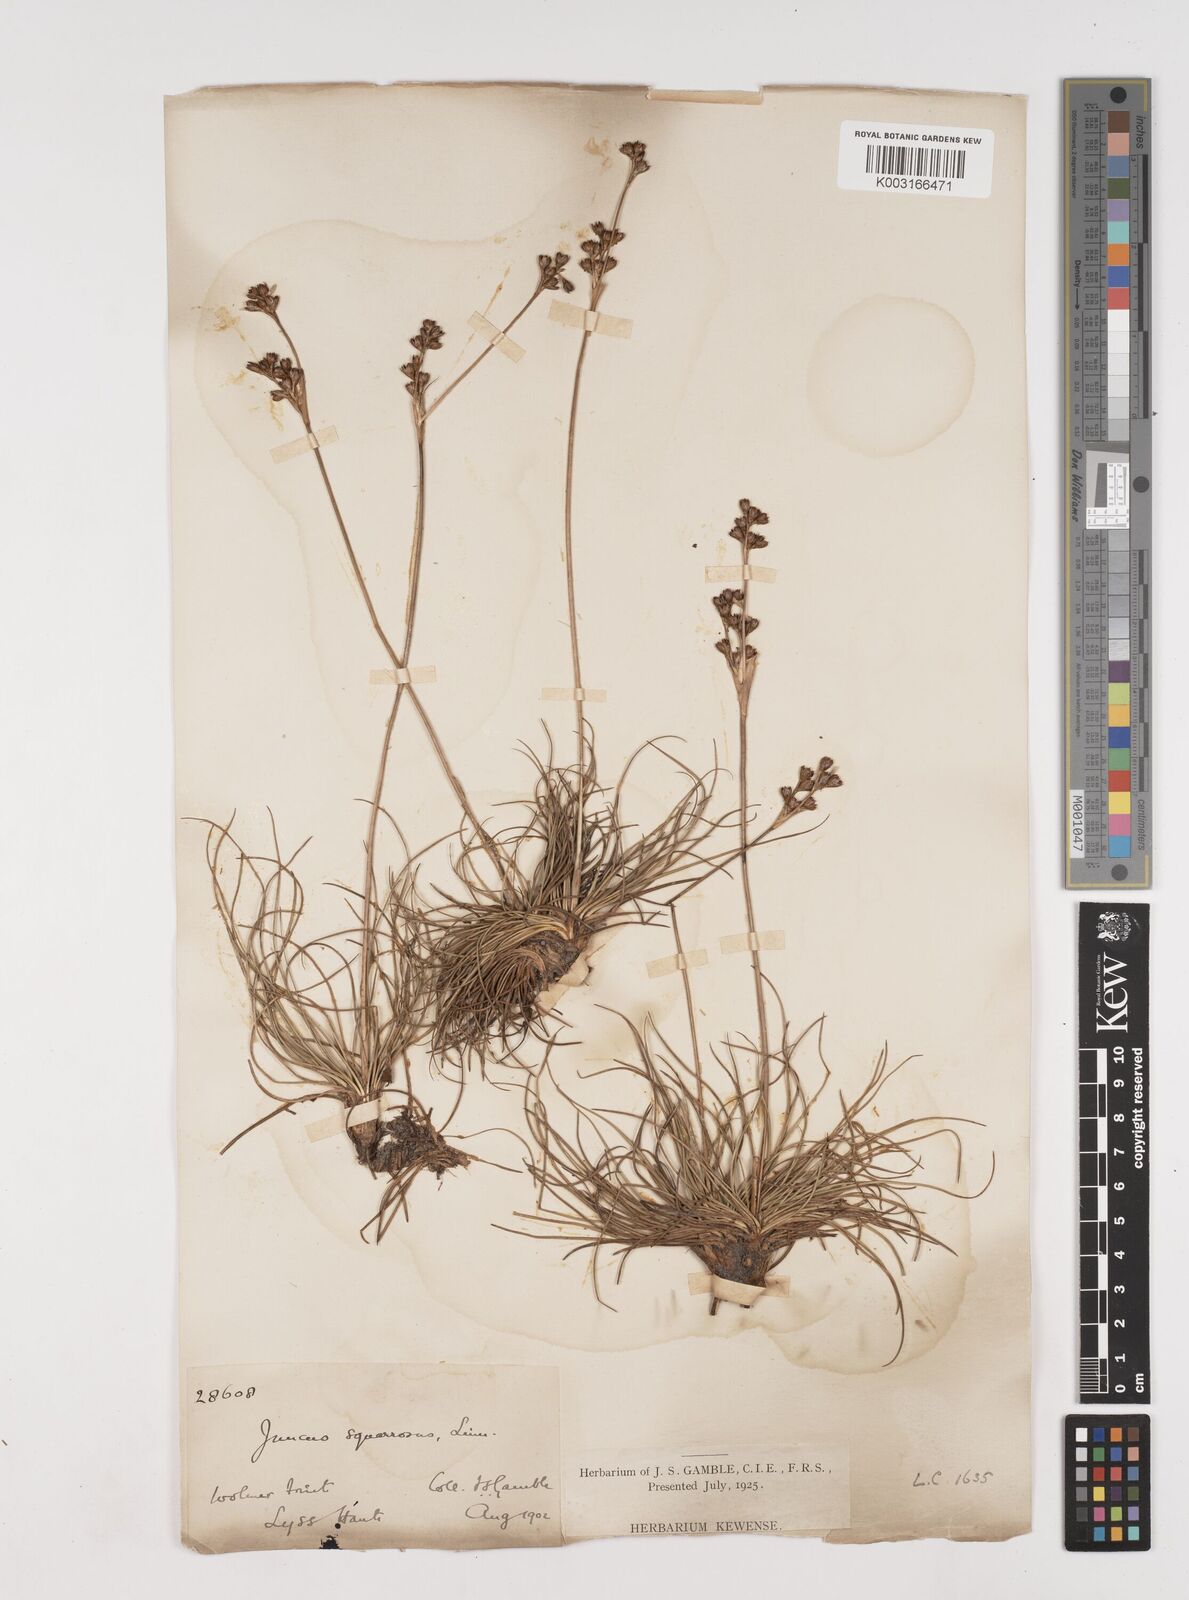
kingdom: Plantae
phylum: Tracheophyta
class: Liliopsida
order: Poales
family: Juncaceae
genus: Juncus
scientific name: Juncus squarrosus
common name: Heath rush
